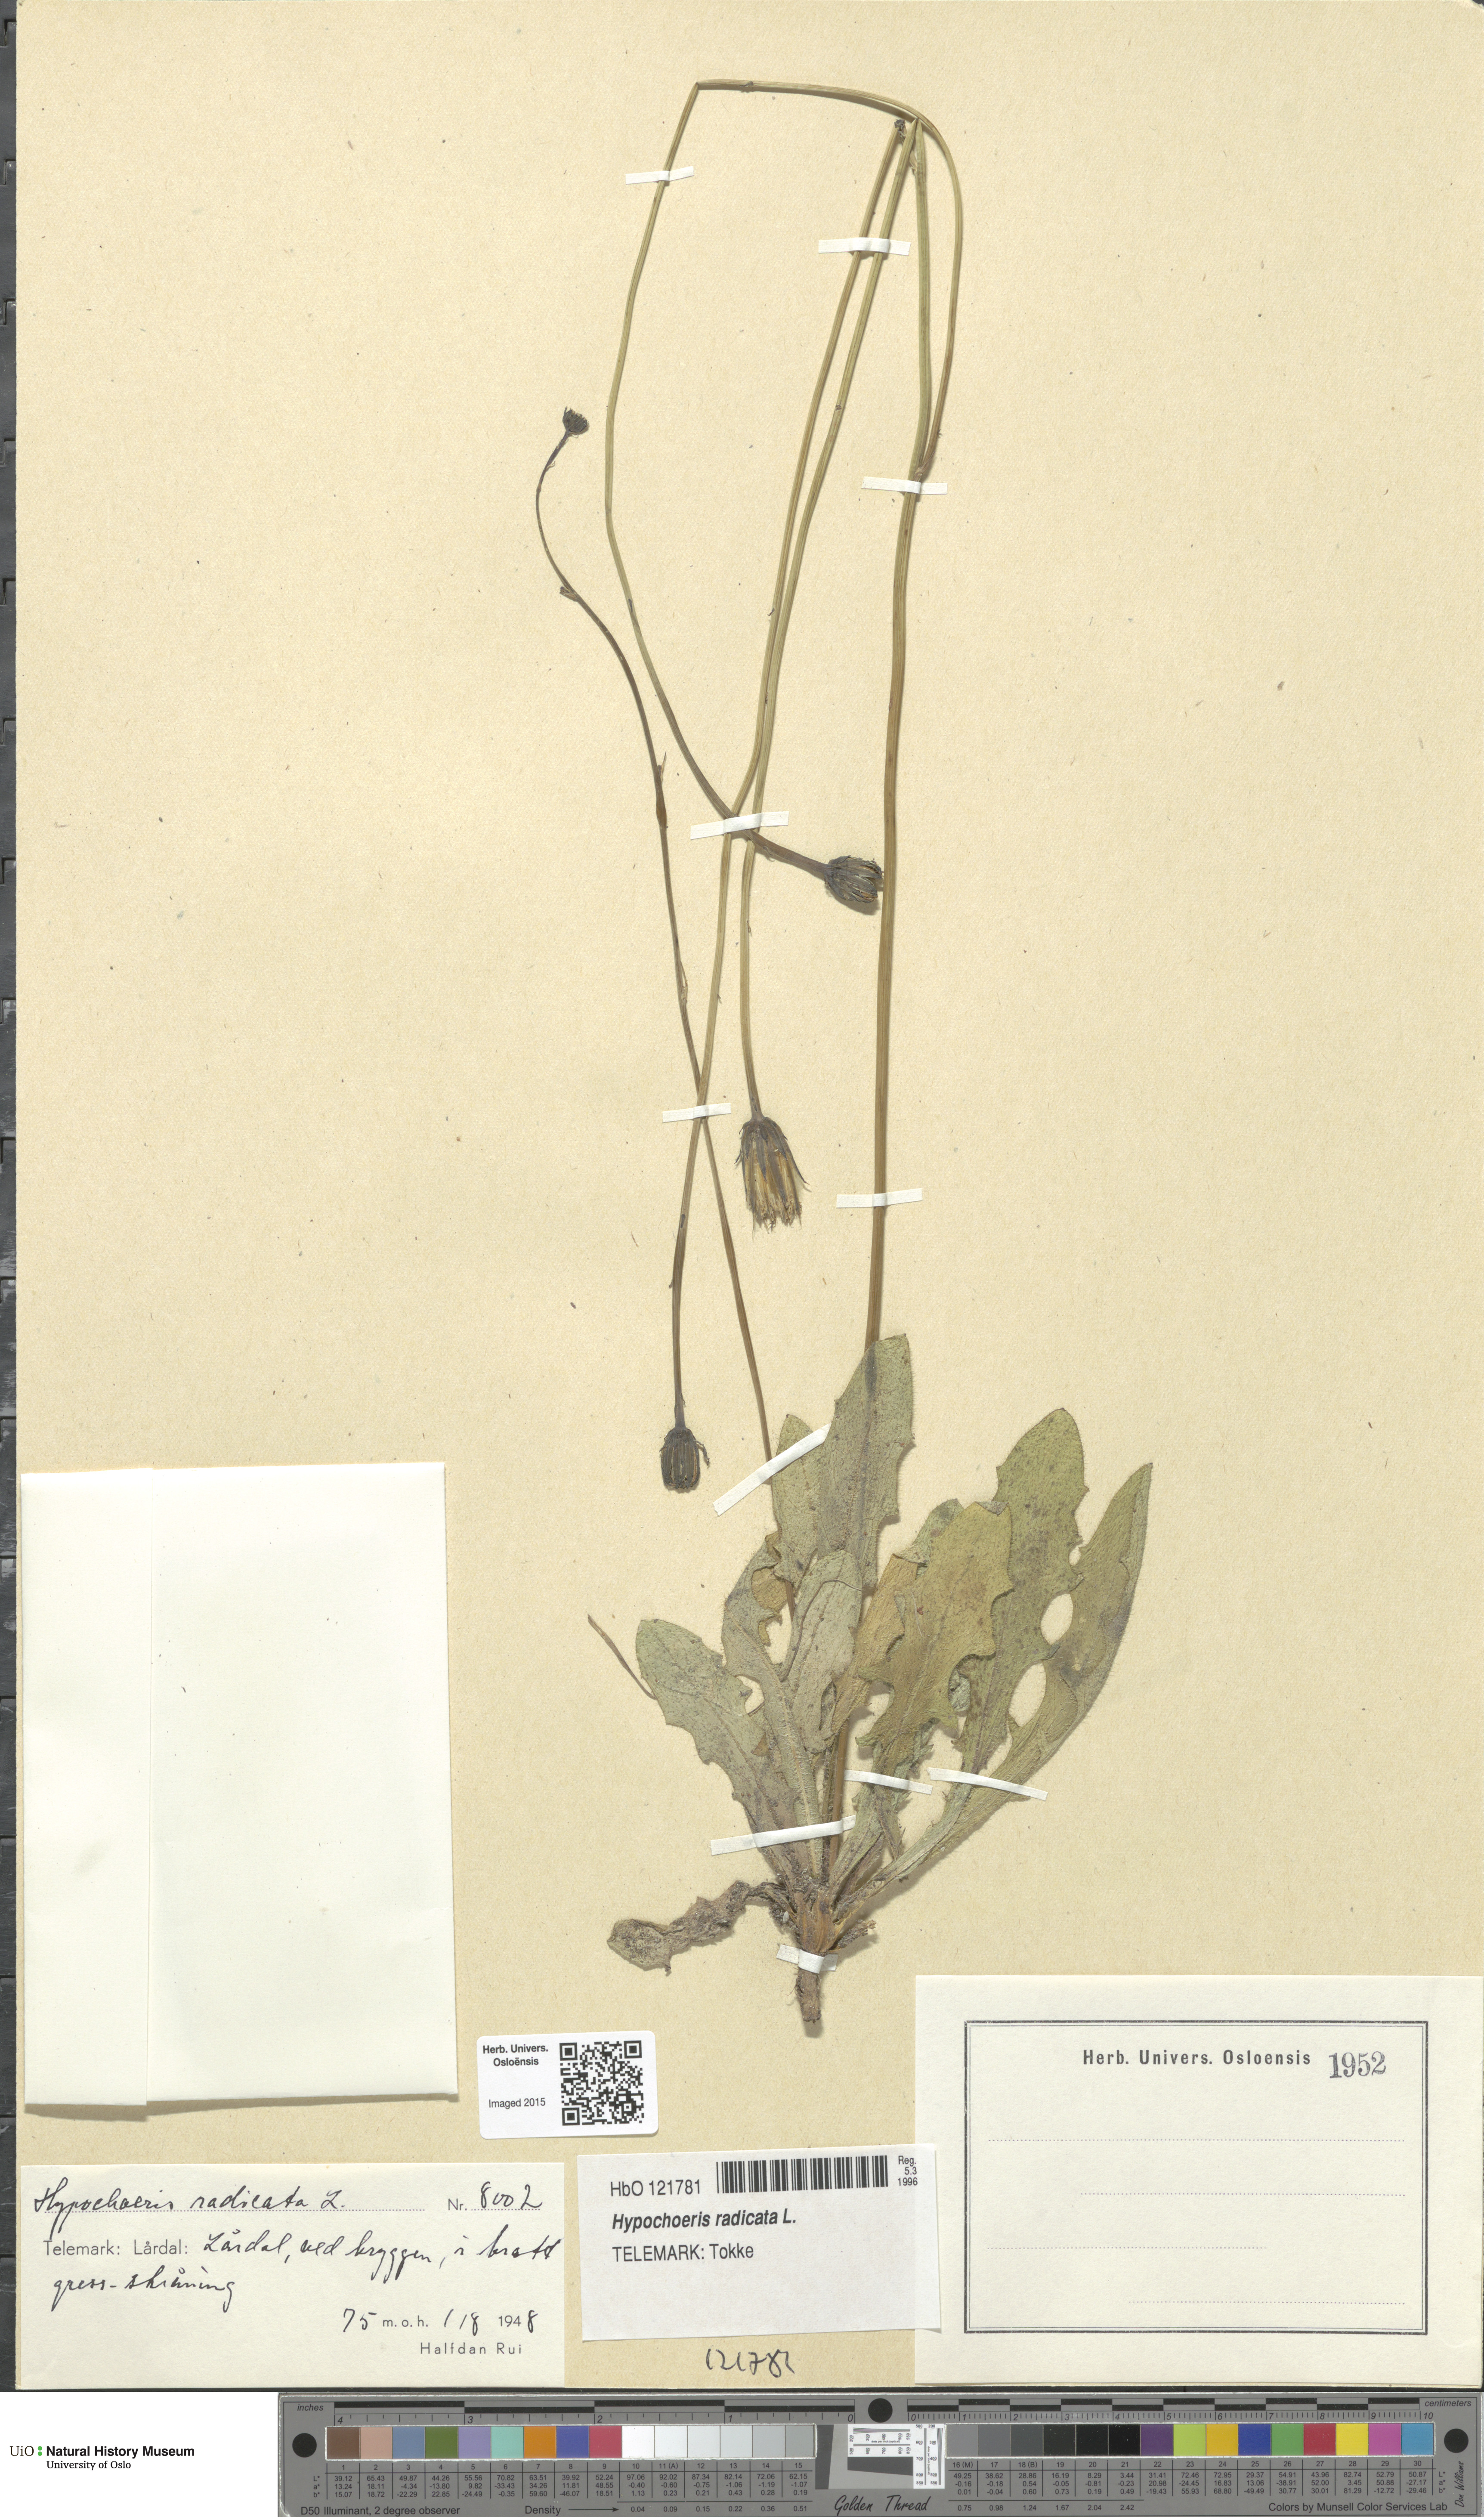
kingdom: Plantae
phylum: Tracheophyta
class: Magnoliopsida
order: Asterales
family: Asteraceae
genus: Hypochaeris
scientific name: Hypochaeris radicata
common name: Flatweed
